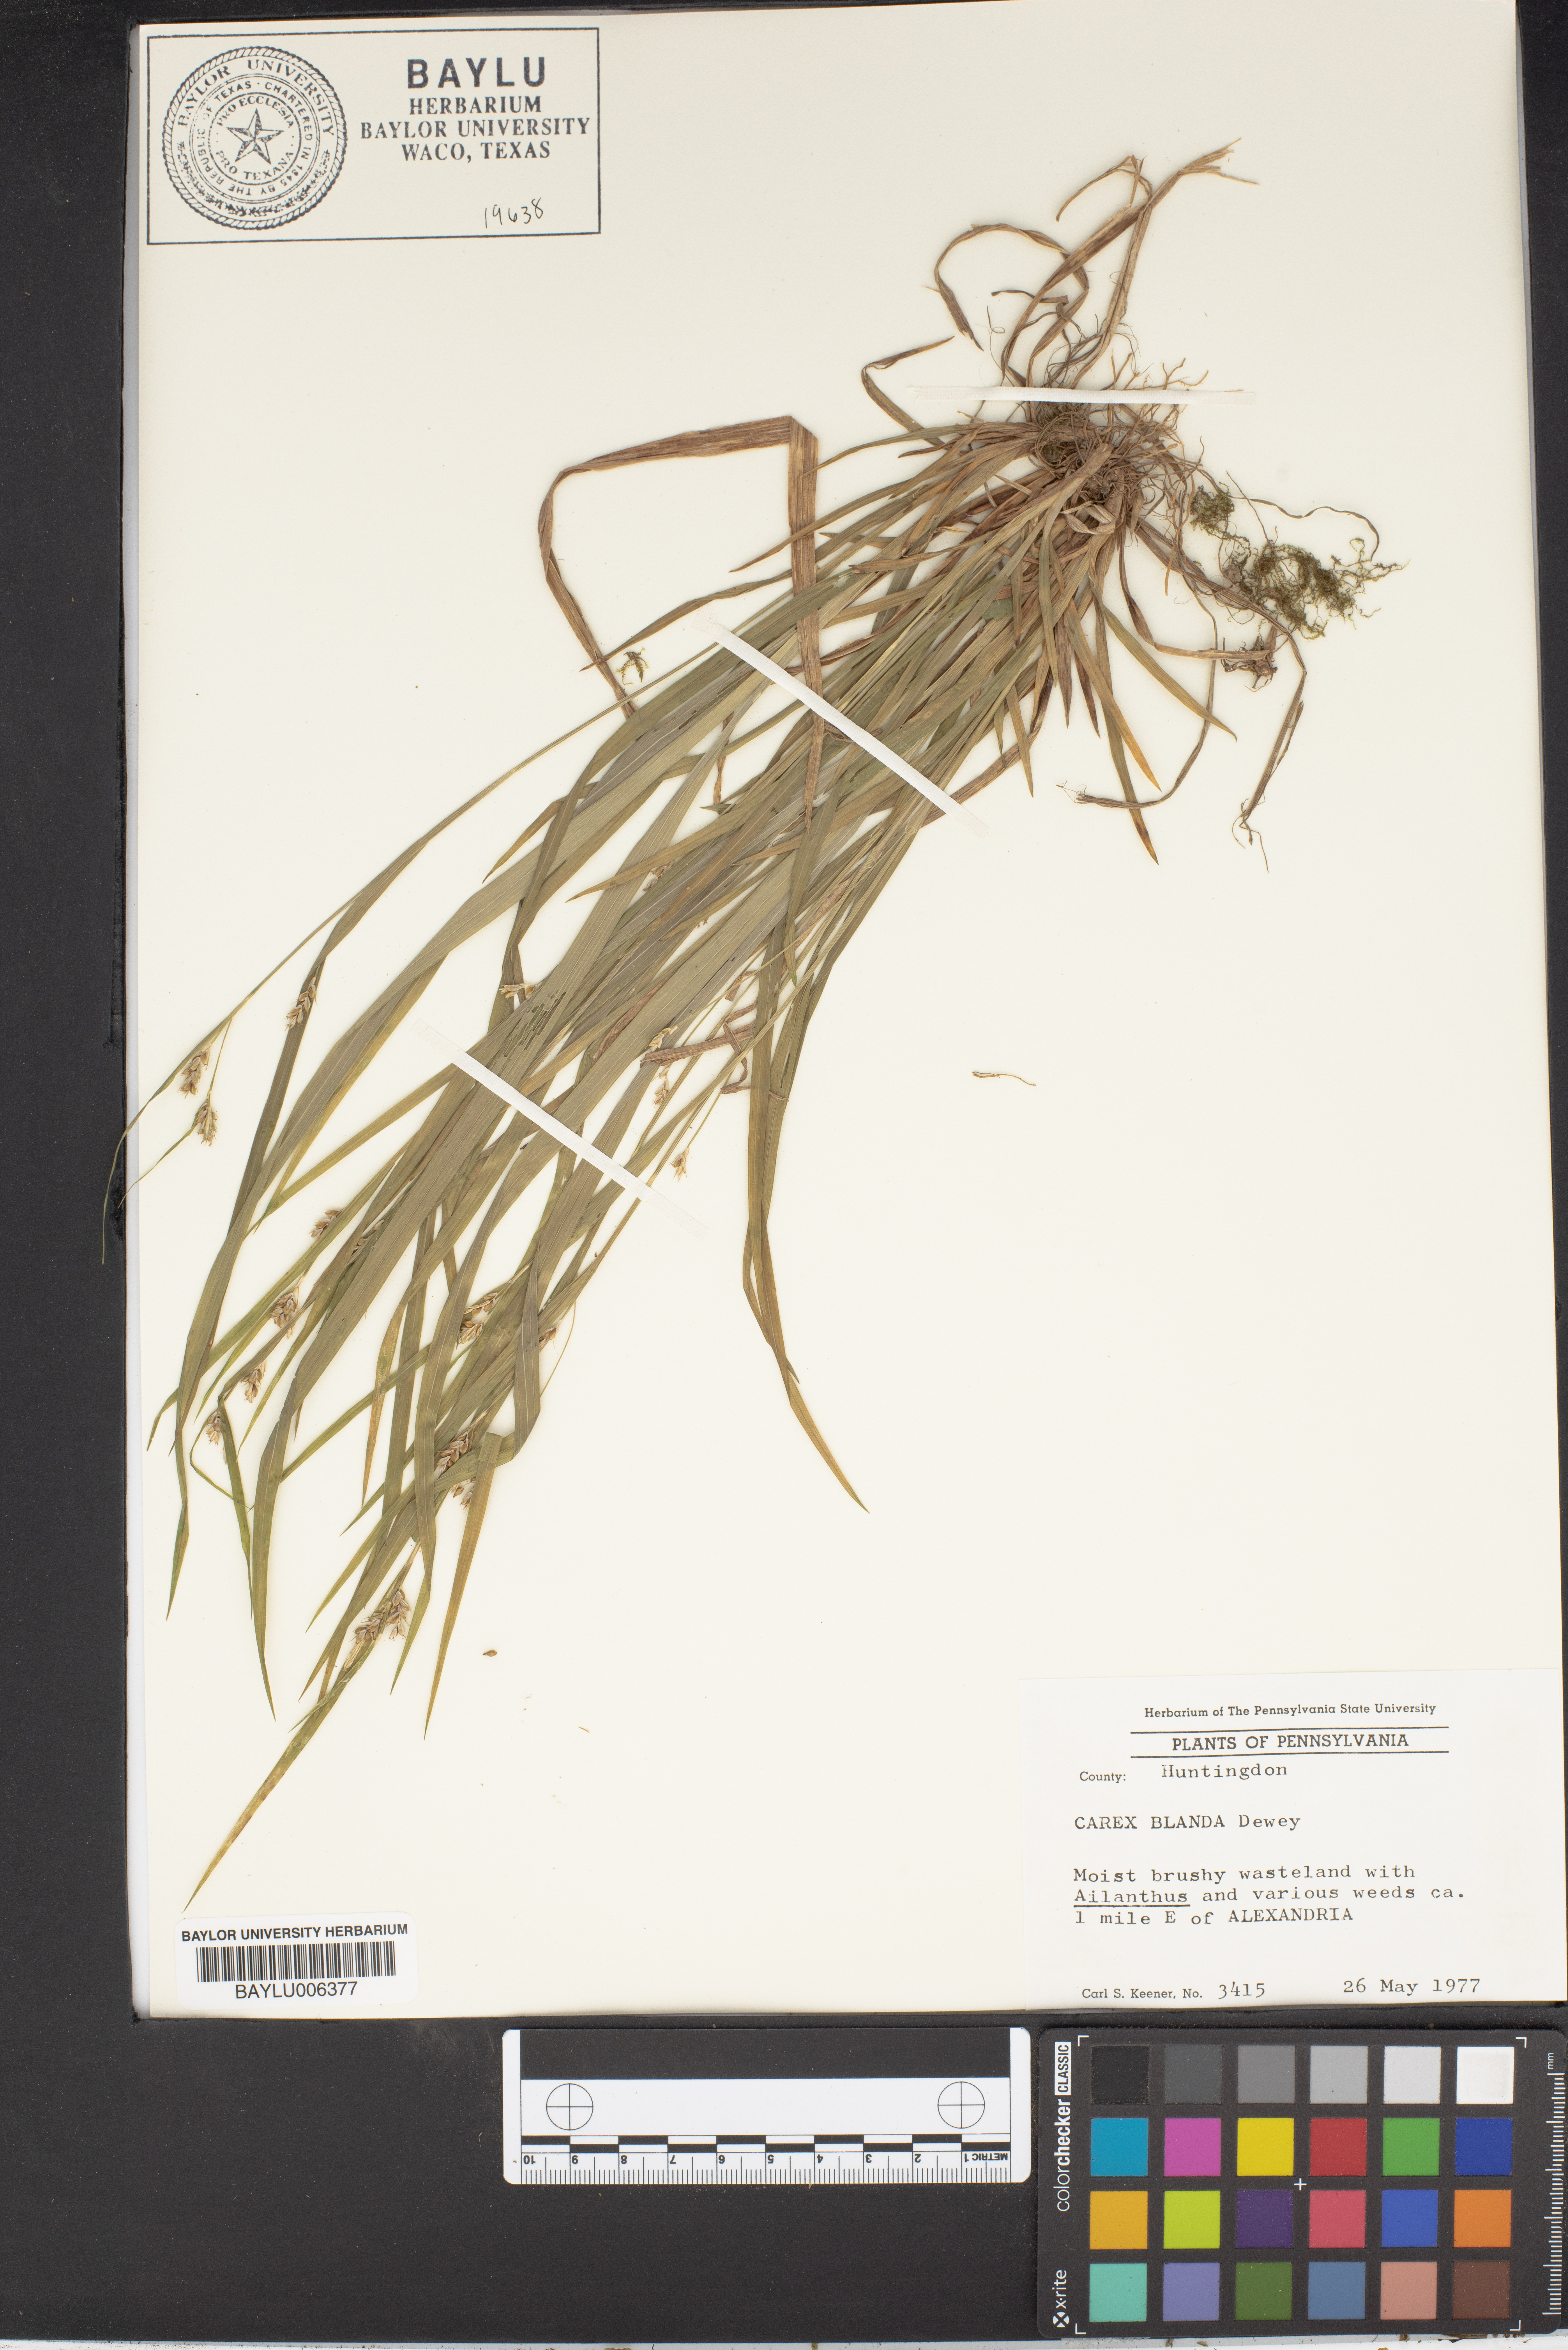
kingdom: Plantae
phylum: Tracheophyta
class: Liliopsida
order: Poales
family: Cyperaceae
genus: Carex
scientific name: Carex blanda
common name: Bland sedge
